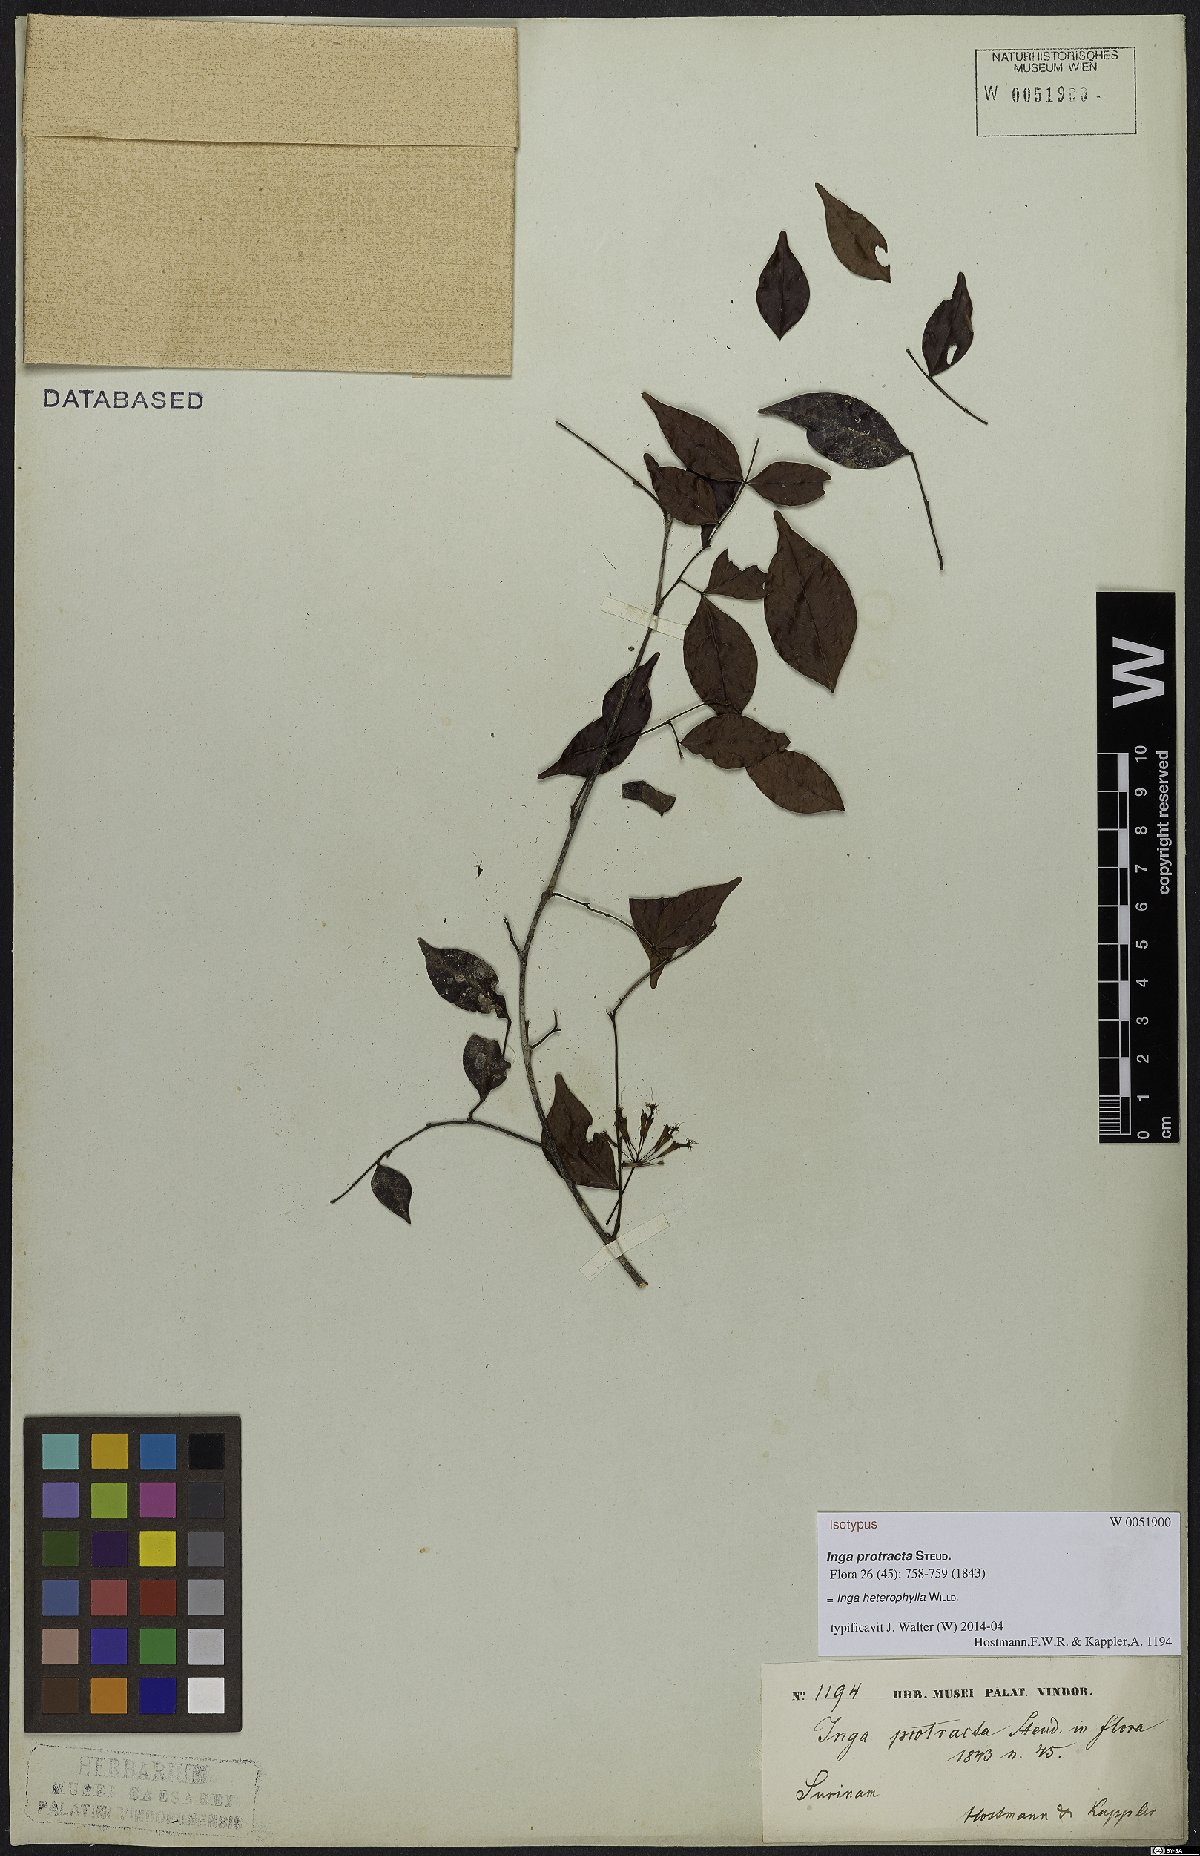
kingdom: Plantae
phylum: Tracheophyta
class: Magnoliopsida
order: Fabales
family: Fabaceae
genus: Inga
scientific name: Inga heterophylla
